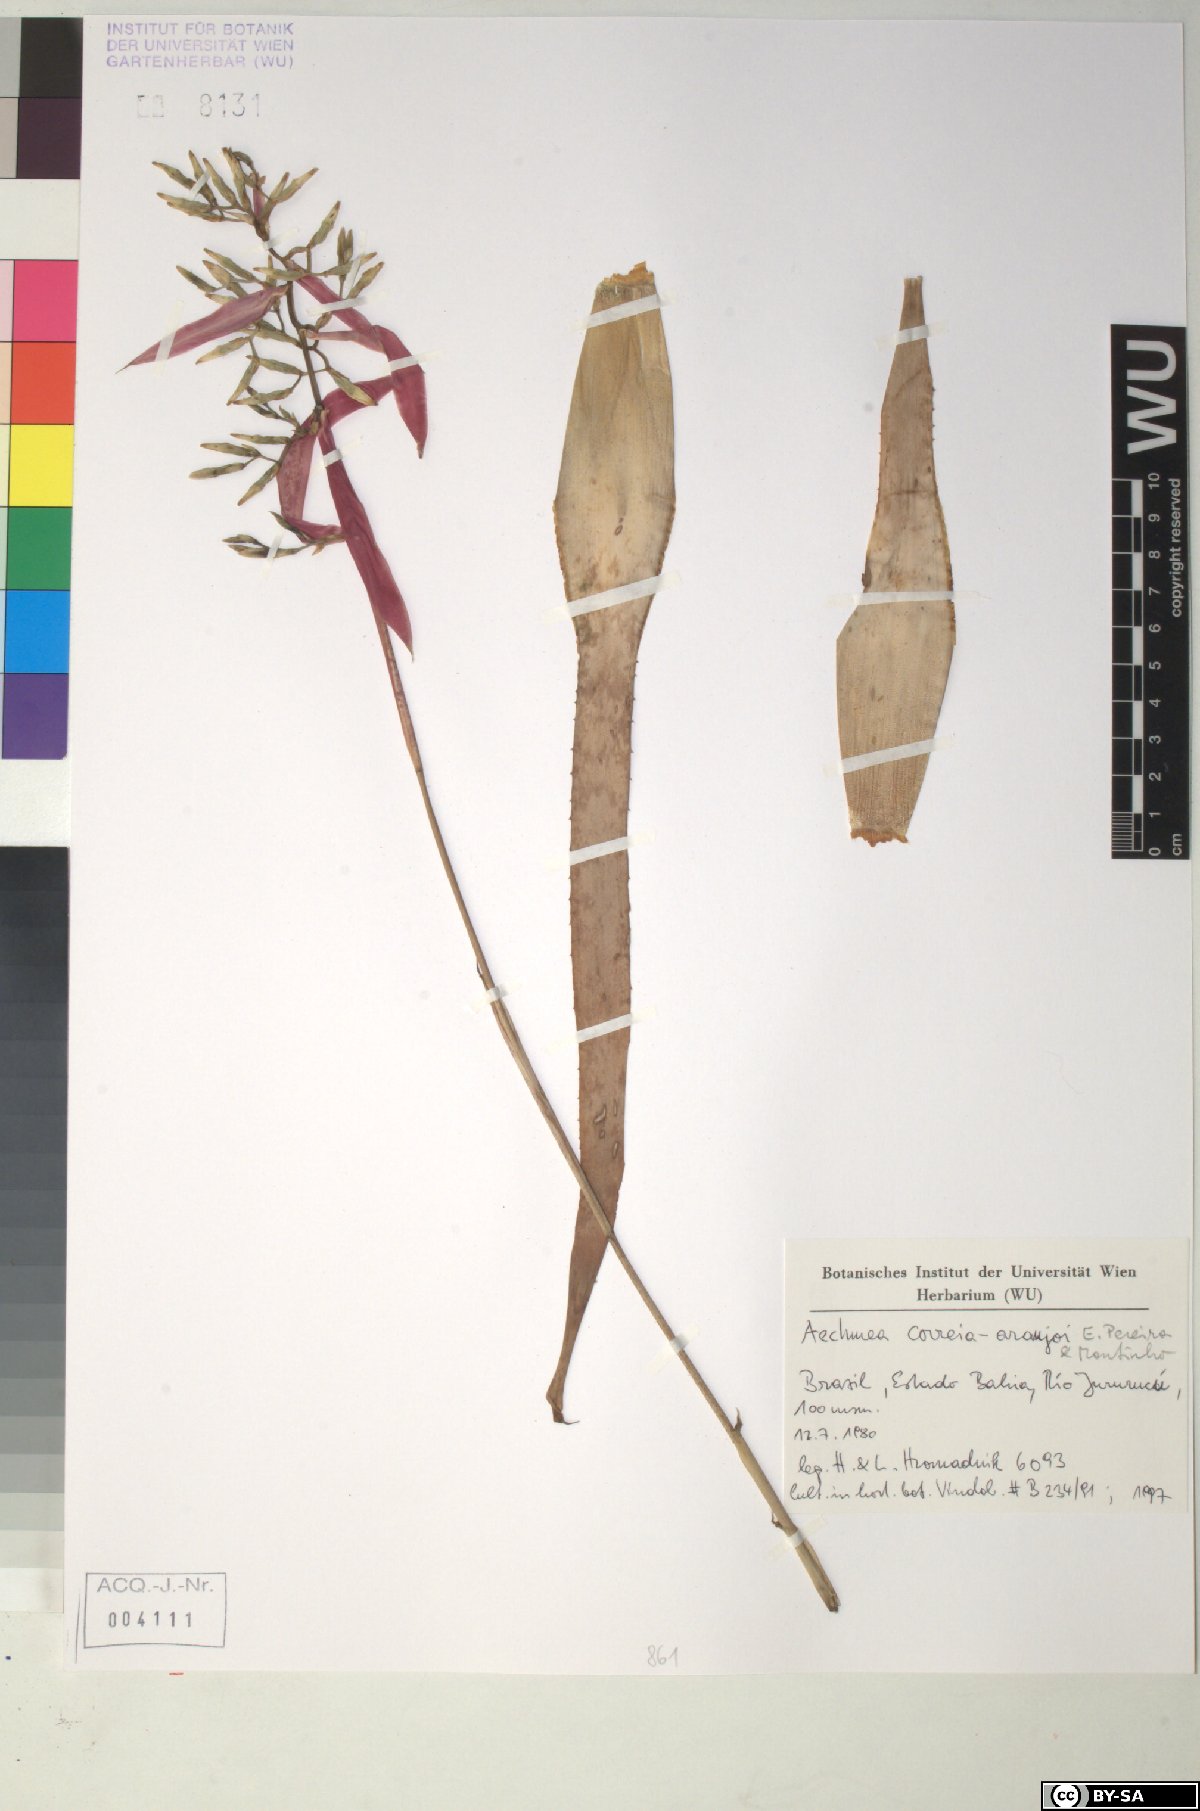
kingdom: Plantae
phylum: Tracheophyta
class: Liliopsida
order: Poales
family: Bromeliaceae
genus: Aechmea
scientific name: Aechmea correia-araujoi
